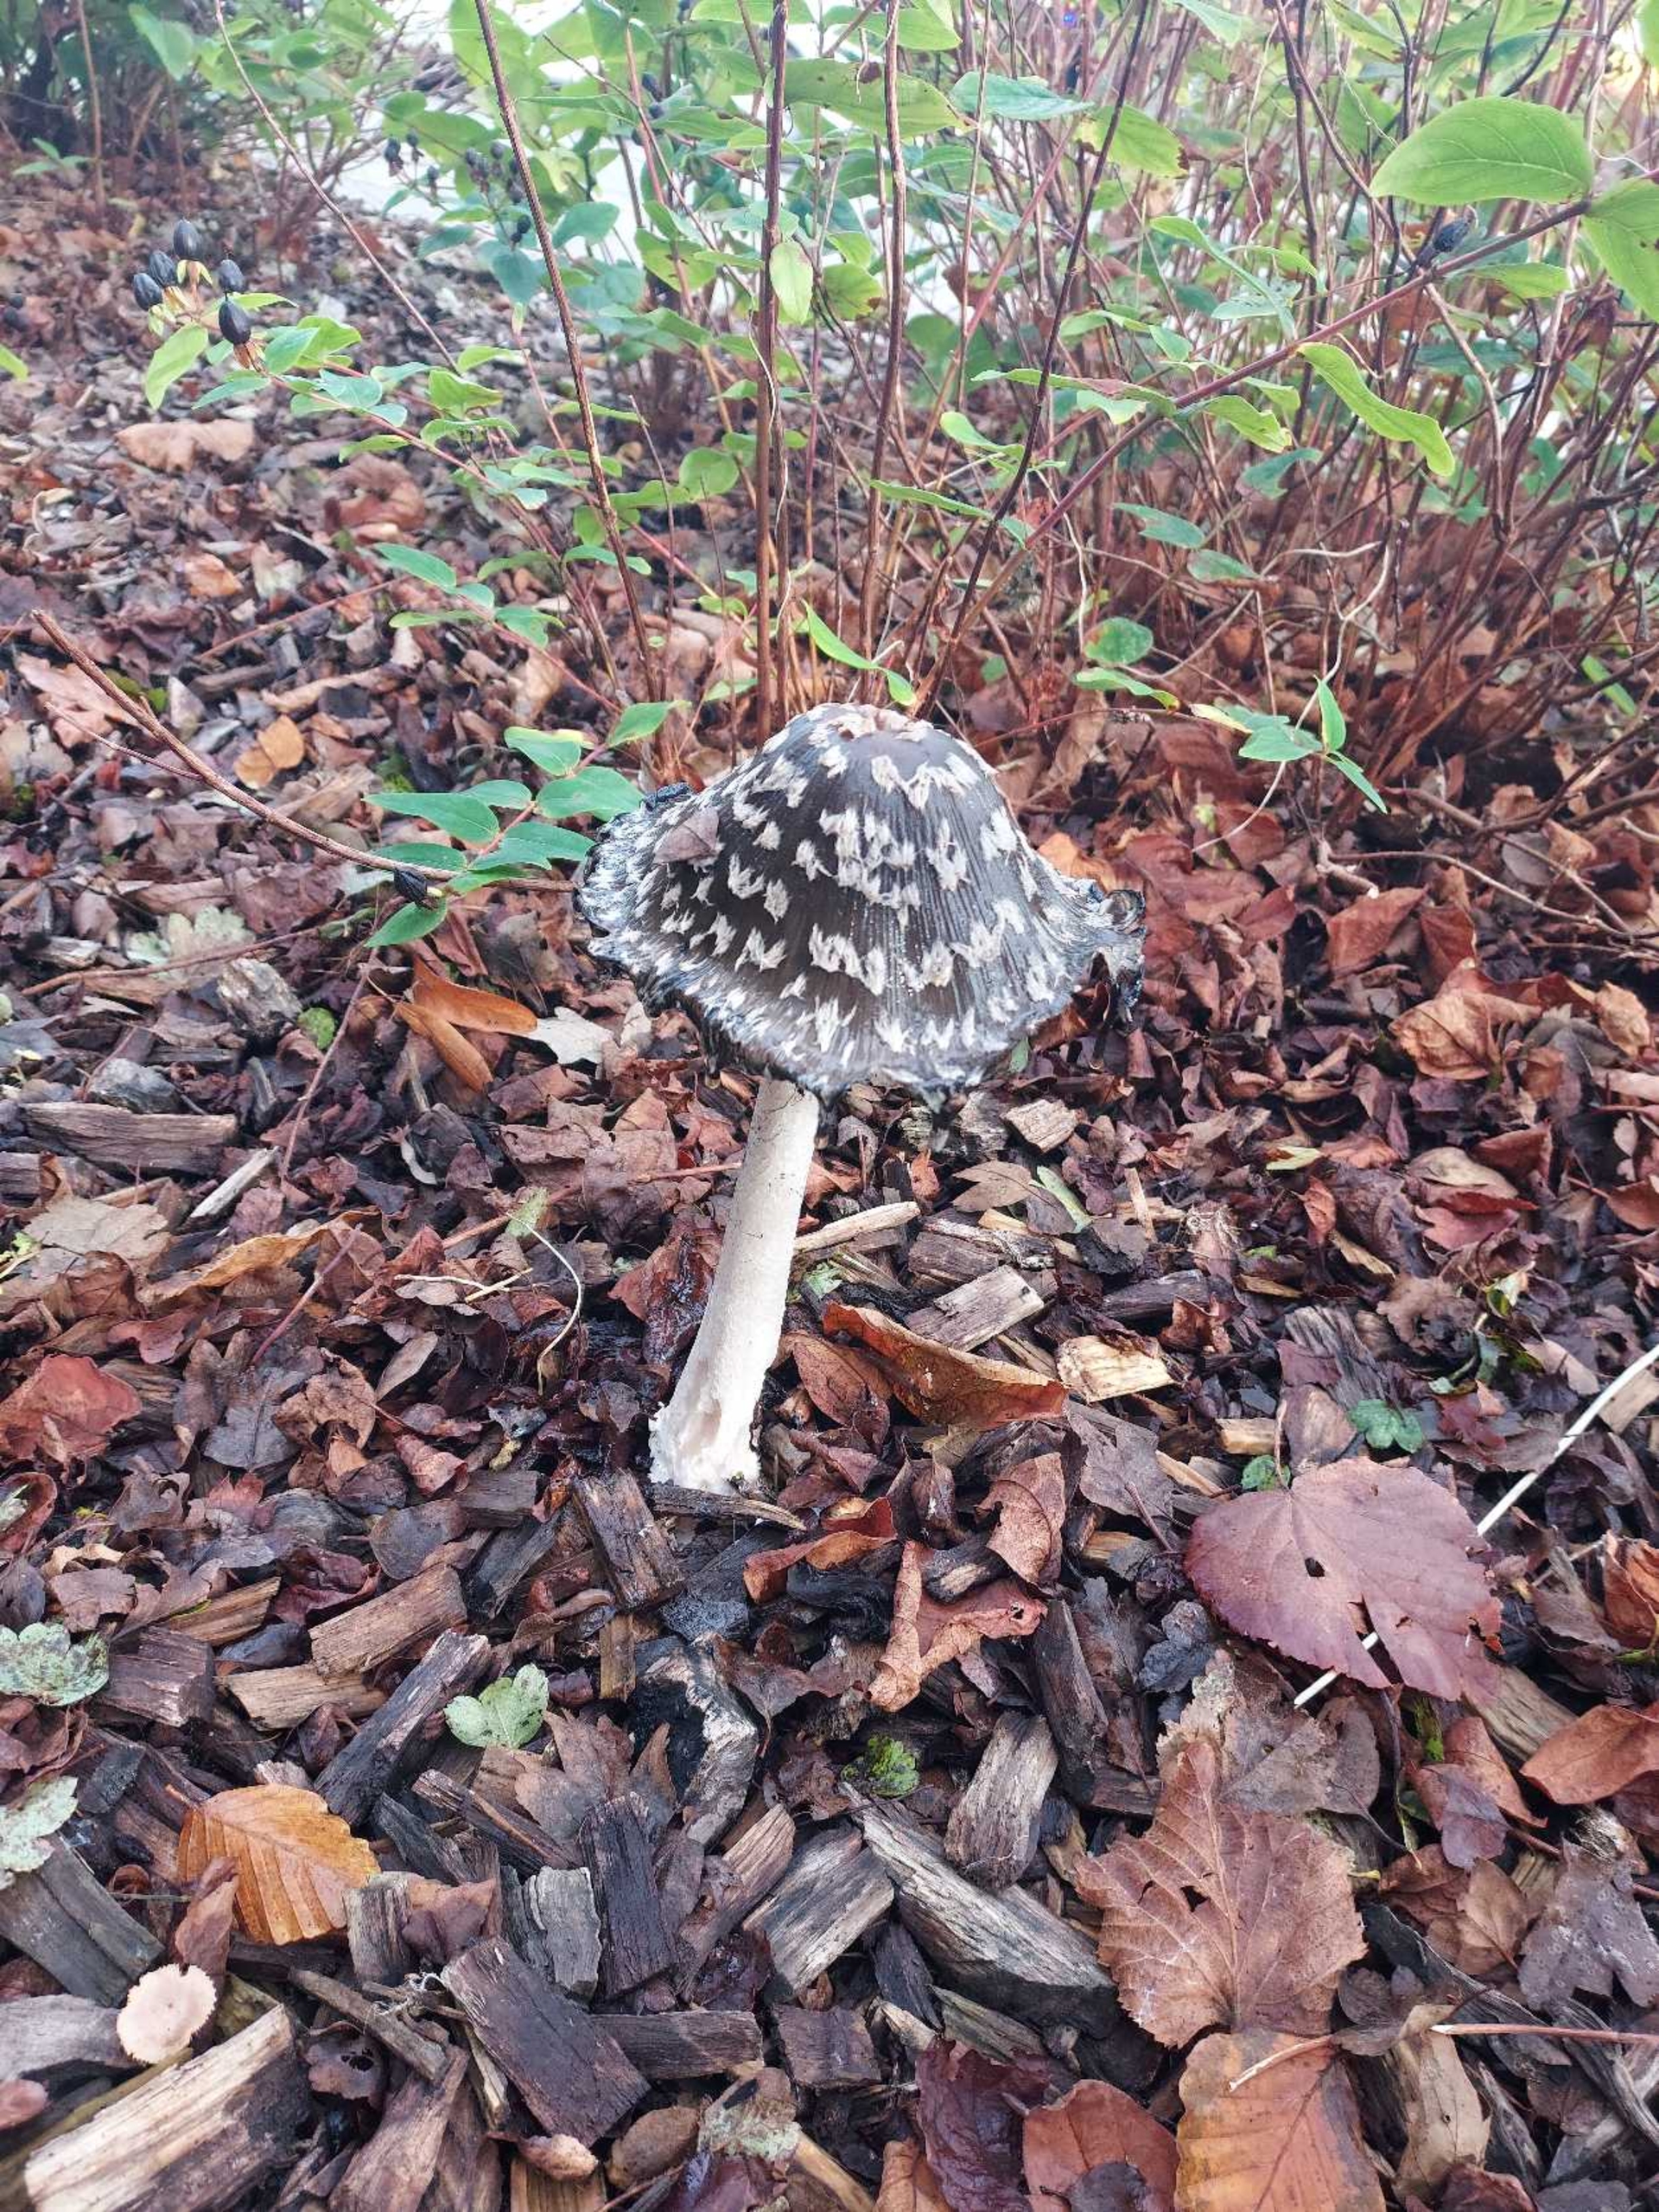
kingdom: Fungi
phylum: Basidiomycota
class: Agaricomycetes
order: Agaricales
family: Psathyrellaceae
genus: Coprinopsis
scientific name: Coprinopsis picacea
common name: Skade-blækhat
